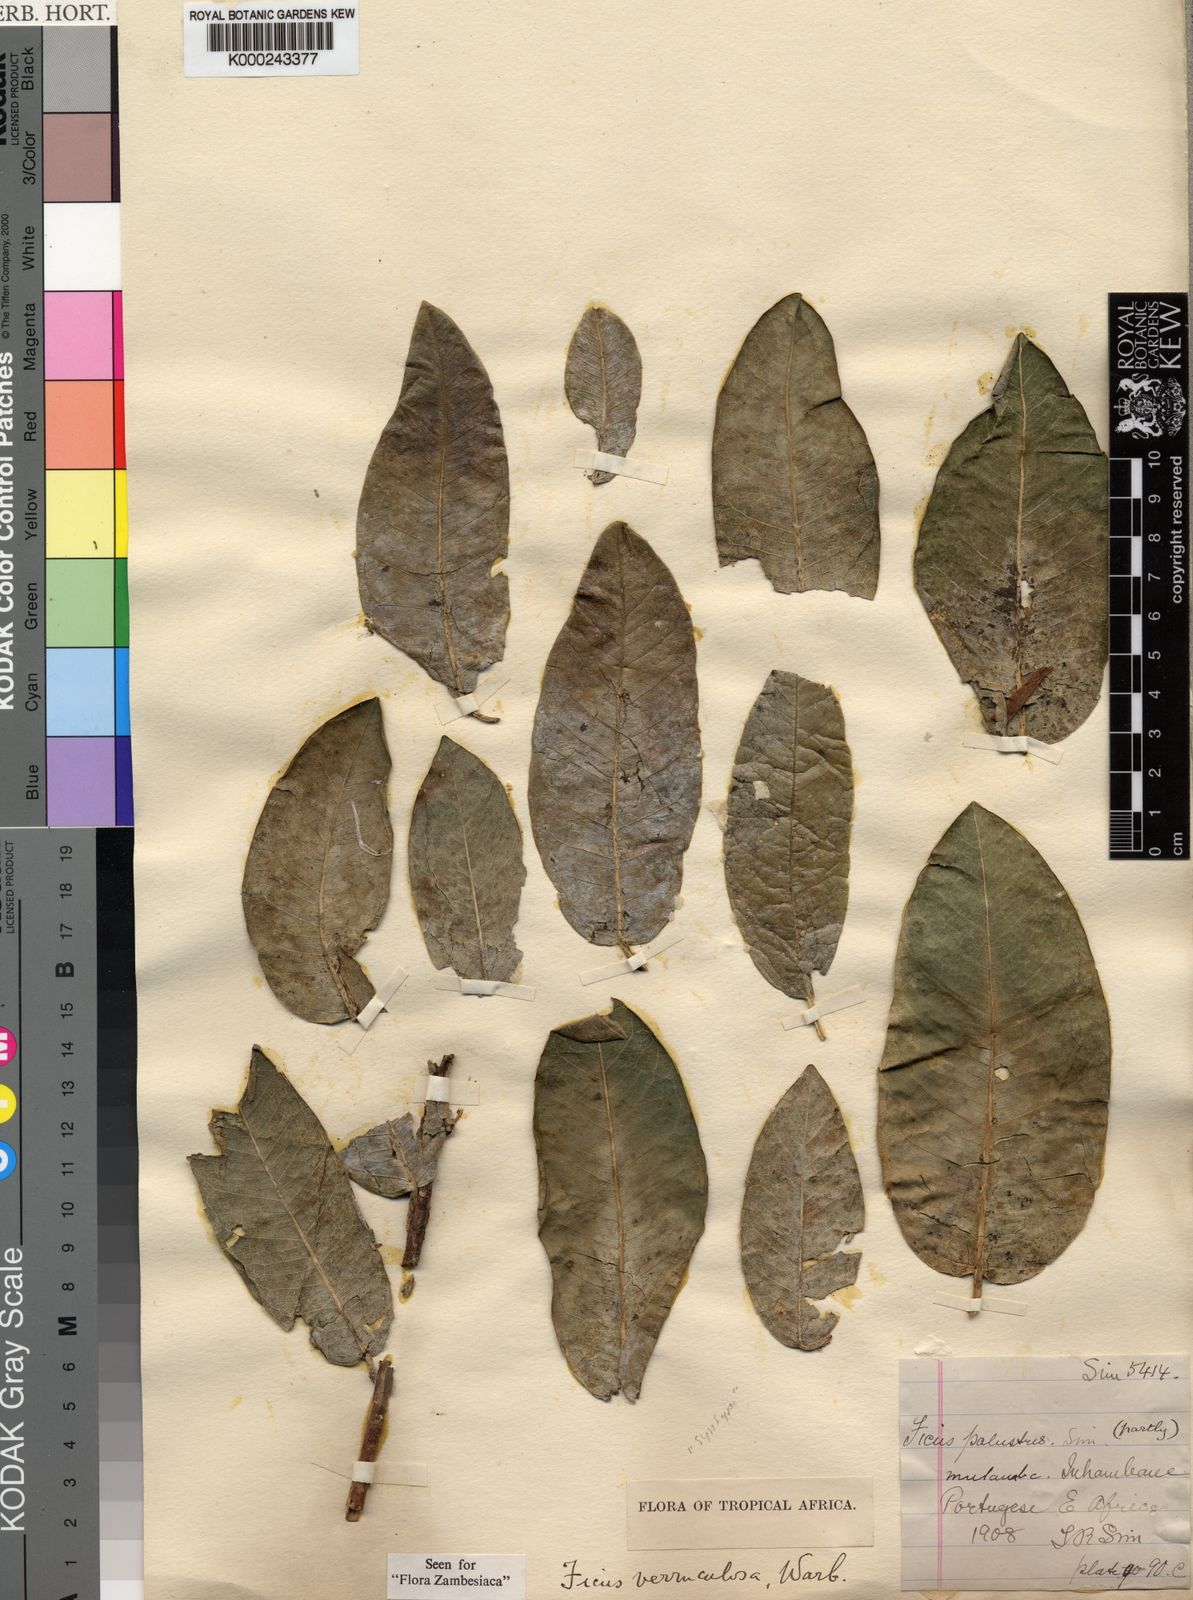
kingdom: Plantae
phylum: Tracheophyta
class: Magnoliopsida
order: Rosales
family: Moraceae
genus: Ficus
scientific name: Ficus verruculosa
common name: Water fig
